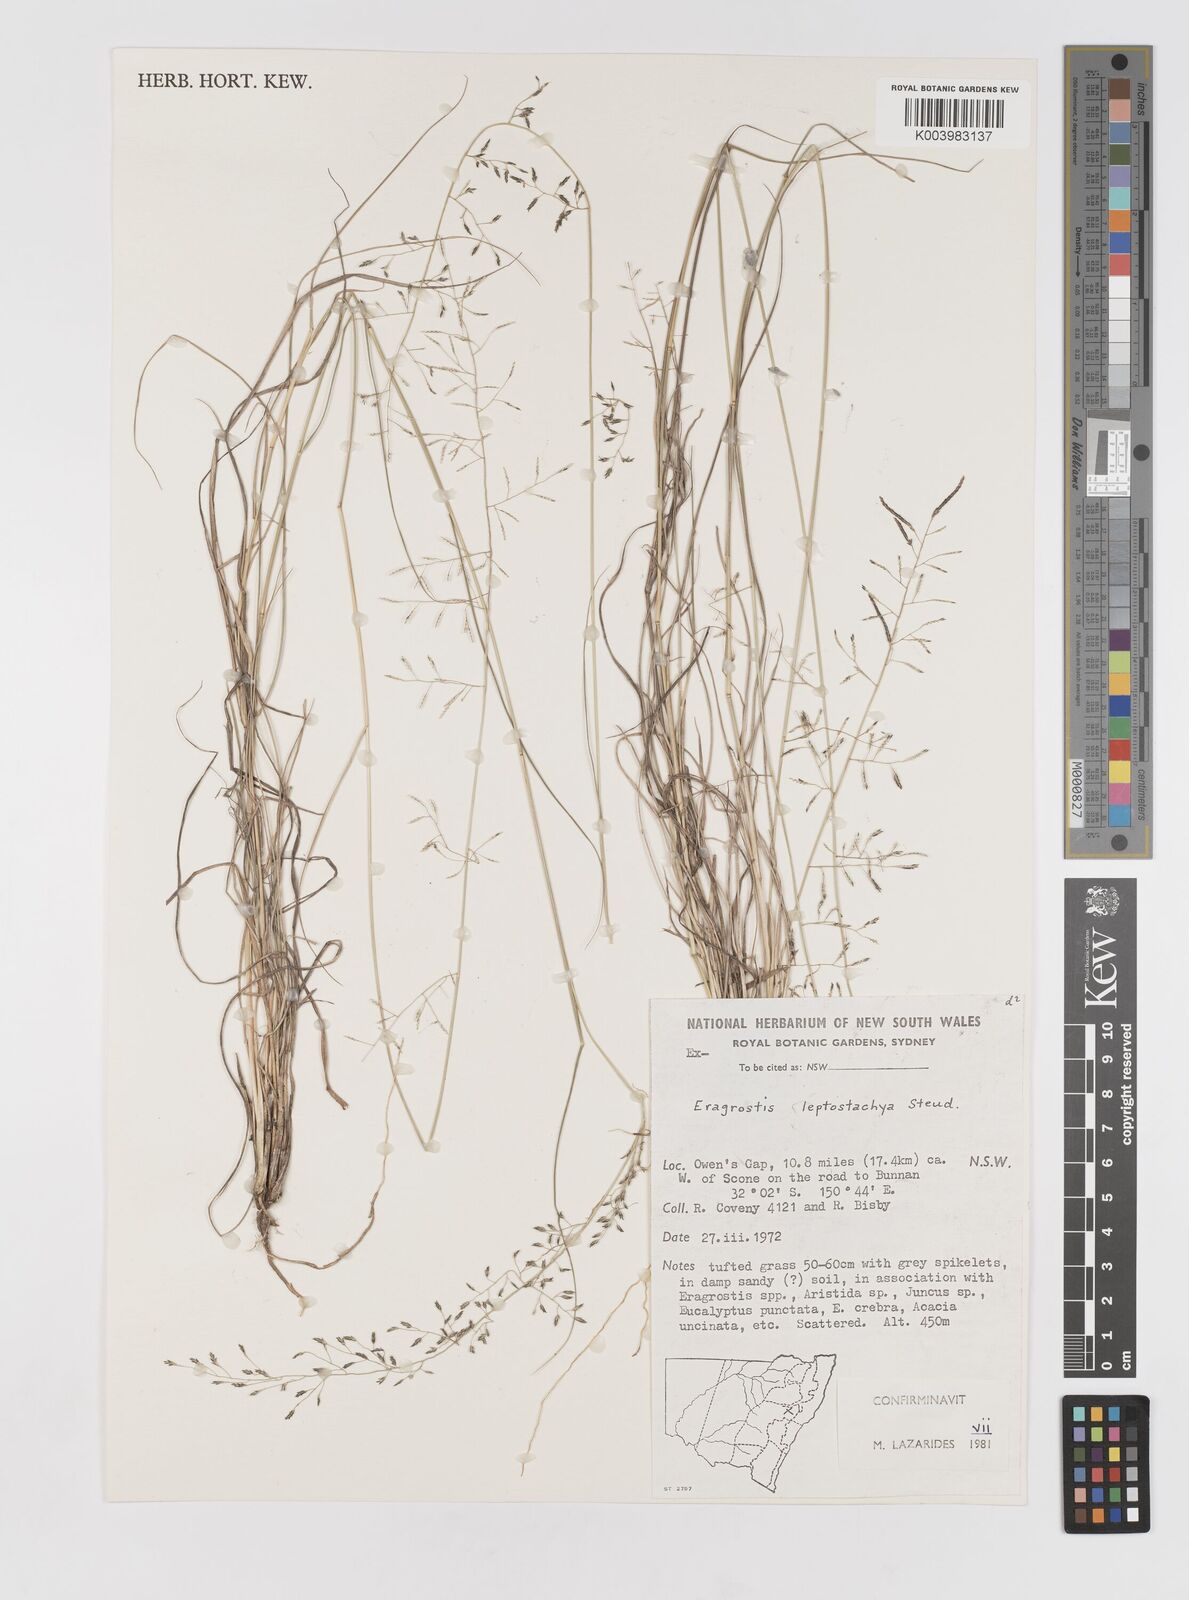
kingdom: Plantae
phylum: Tracheophyta
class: Liliopsida
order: Poales
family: Poaceae
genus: Eragrostis
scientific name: Eragrostis leptostachya
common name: Australian lovegrass
